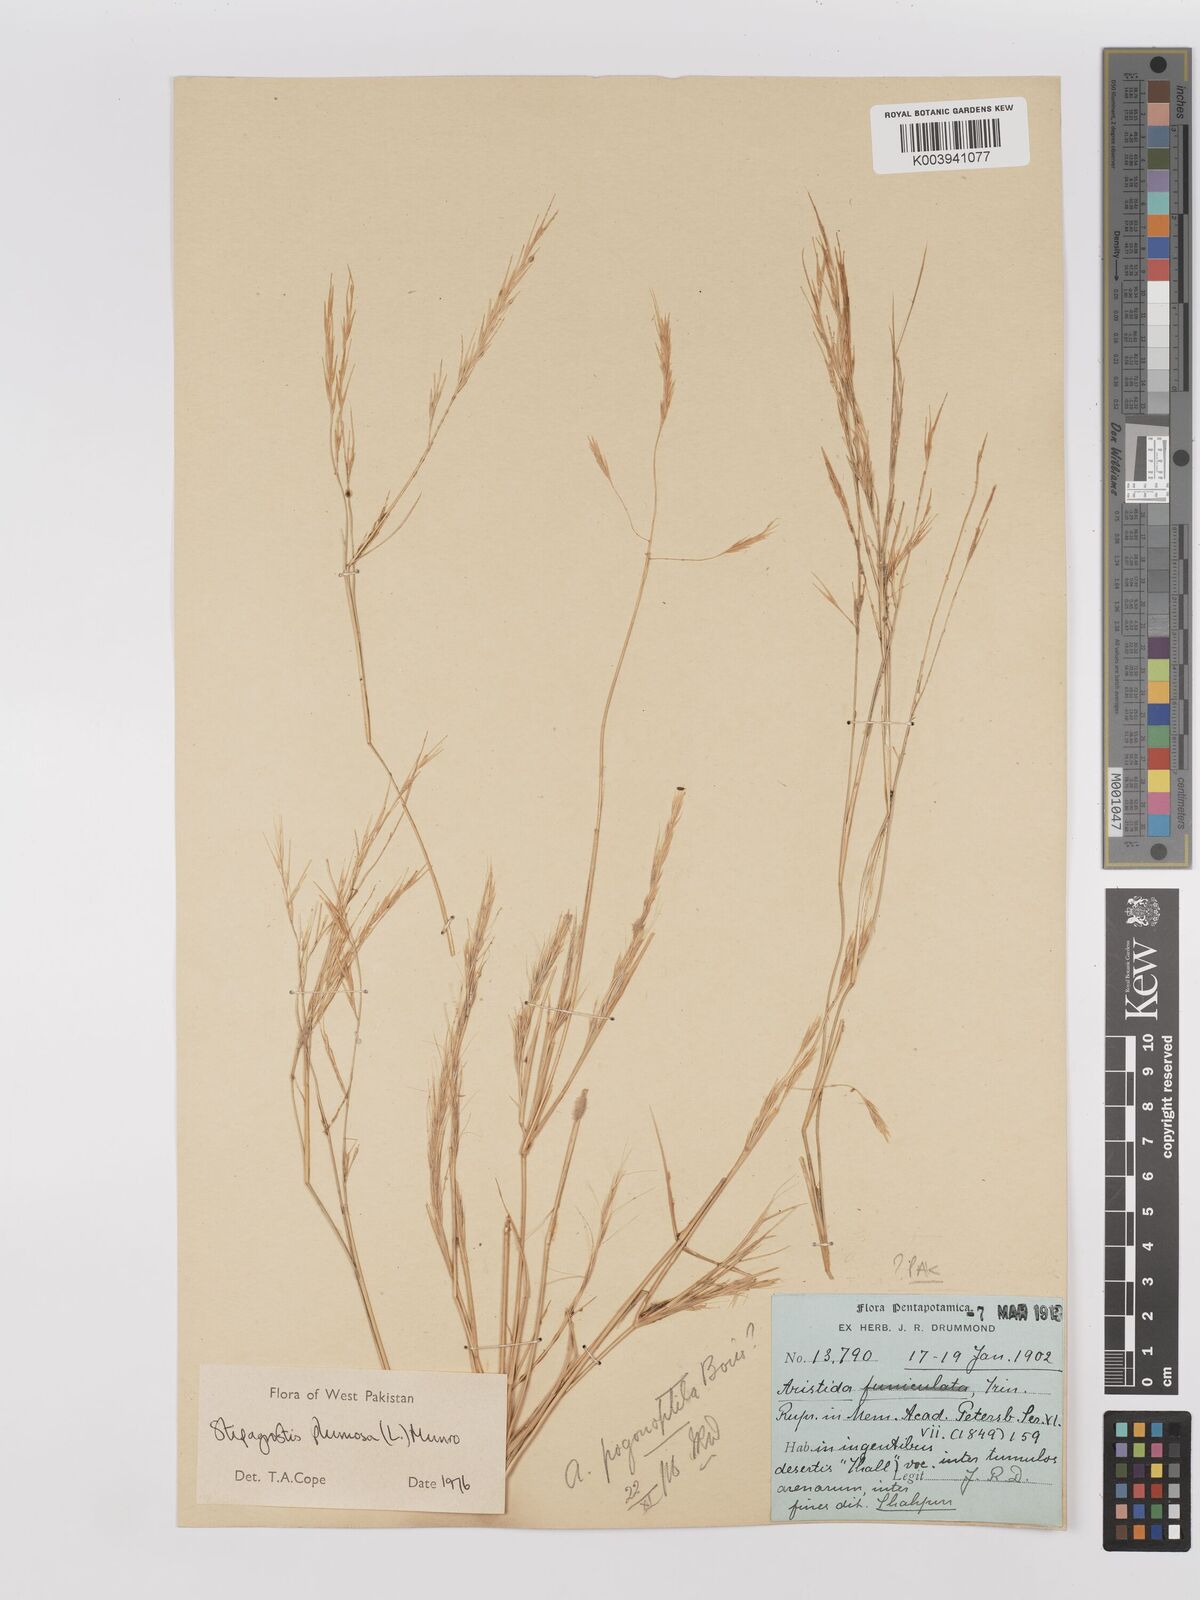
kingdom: Plantae
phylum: Tracheophyta
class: Liliopsida
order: Poales
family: Poaceae
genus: Stipagrostis
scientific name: Stipagrostis plumosa
